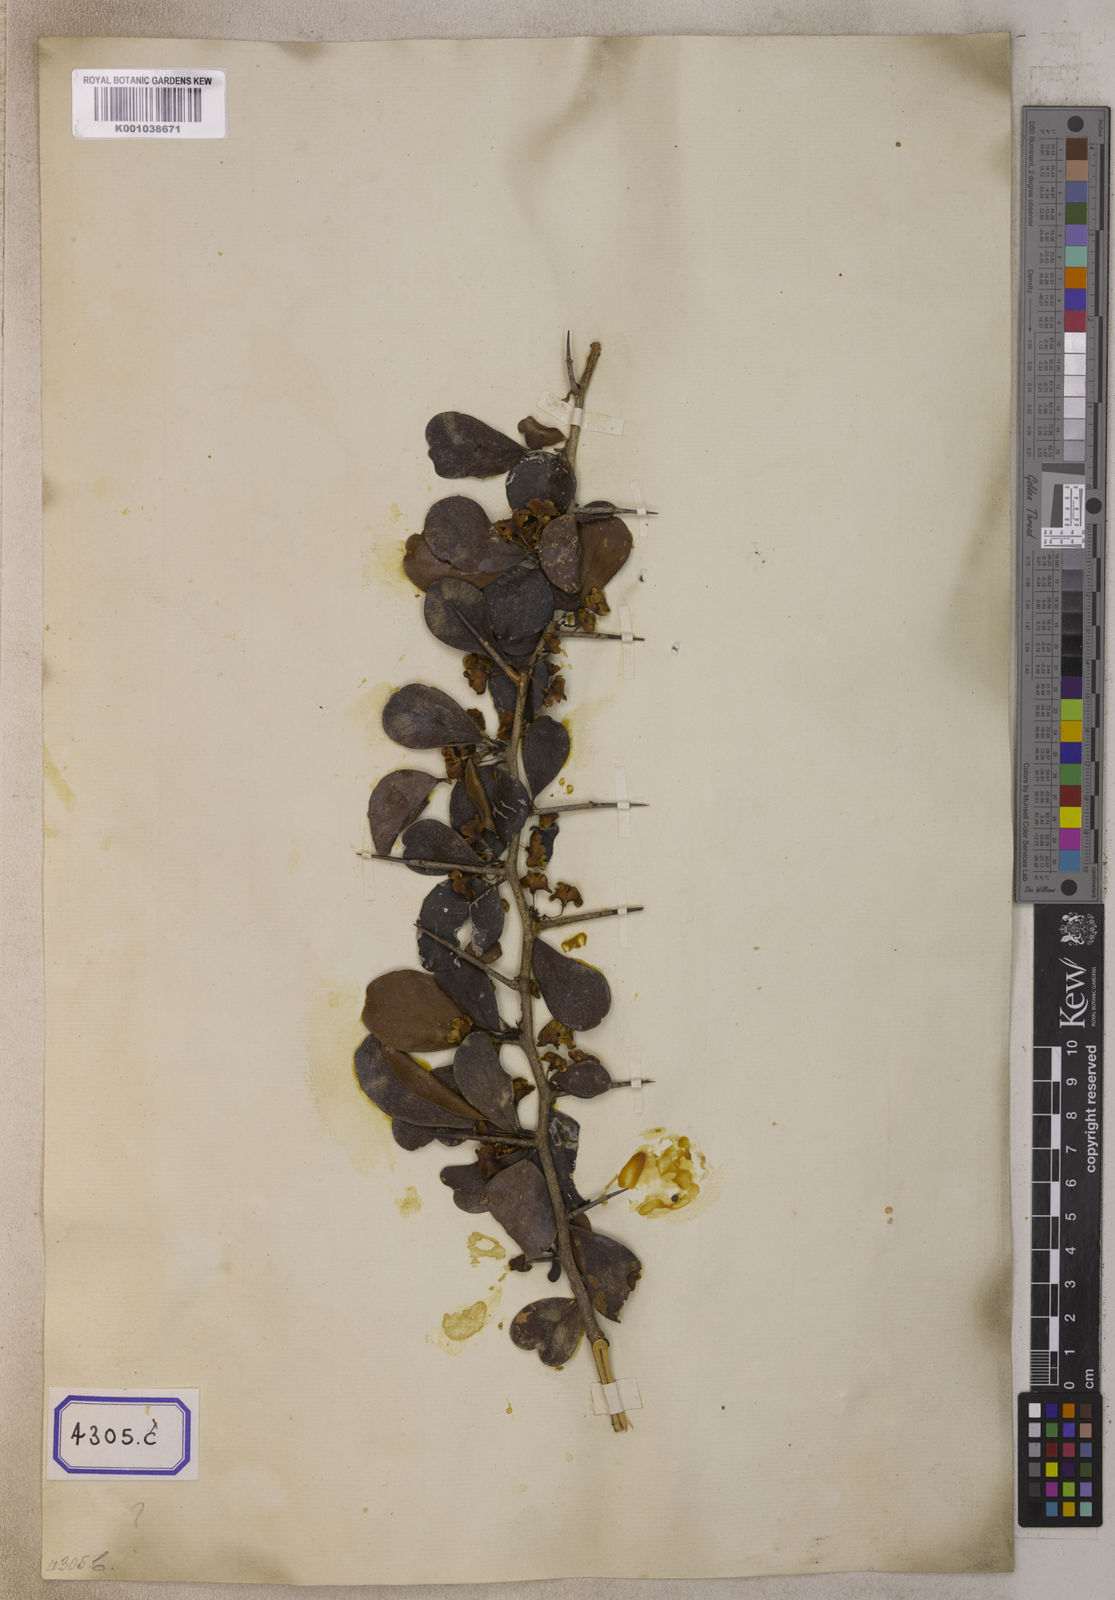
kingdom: Plantae
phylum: Tracheophyta
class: Magnoliopsida
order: Celastrales
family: Celastraceae
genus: Gymnosporia
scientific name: Gymnosporia emarginata
